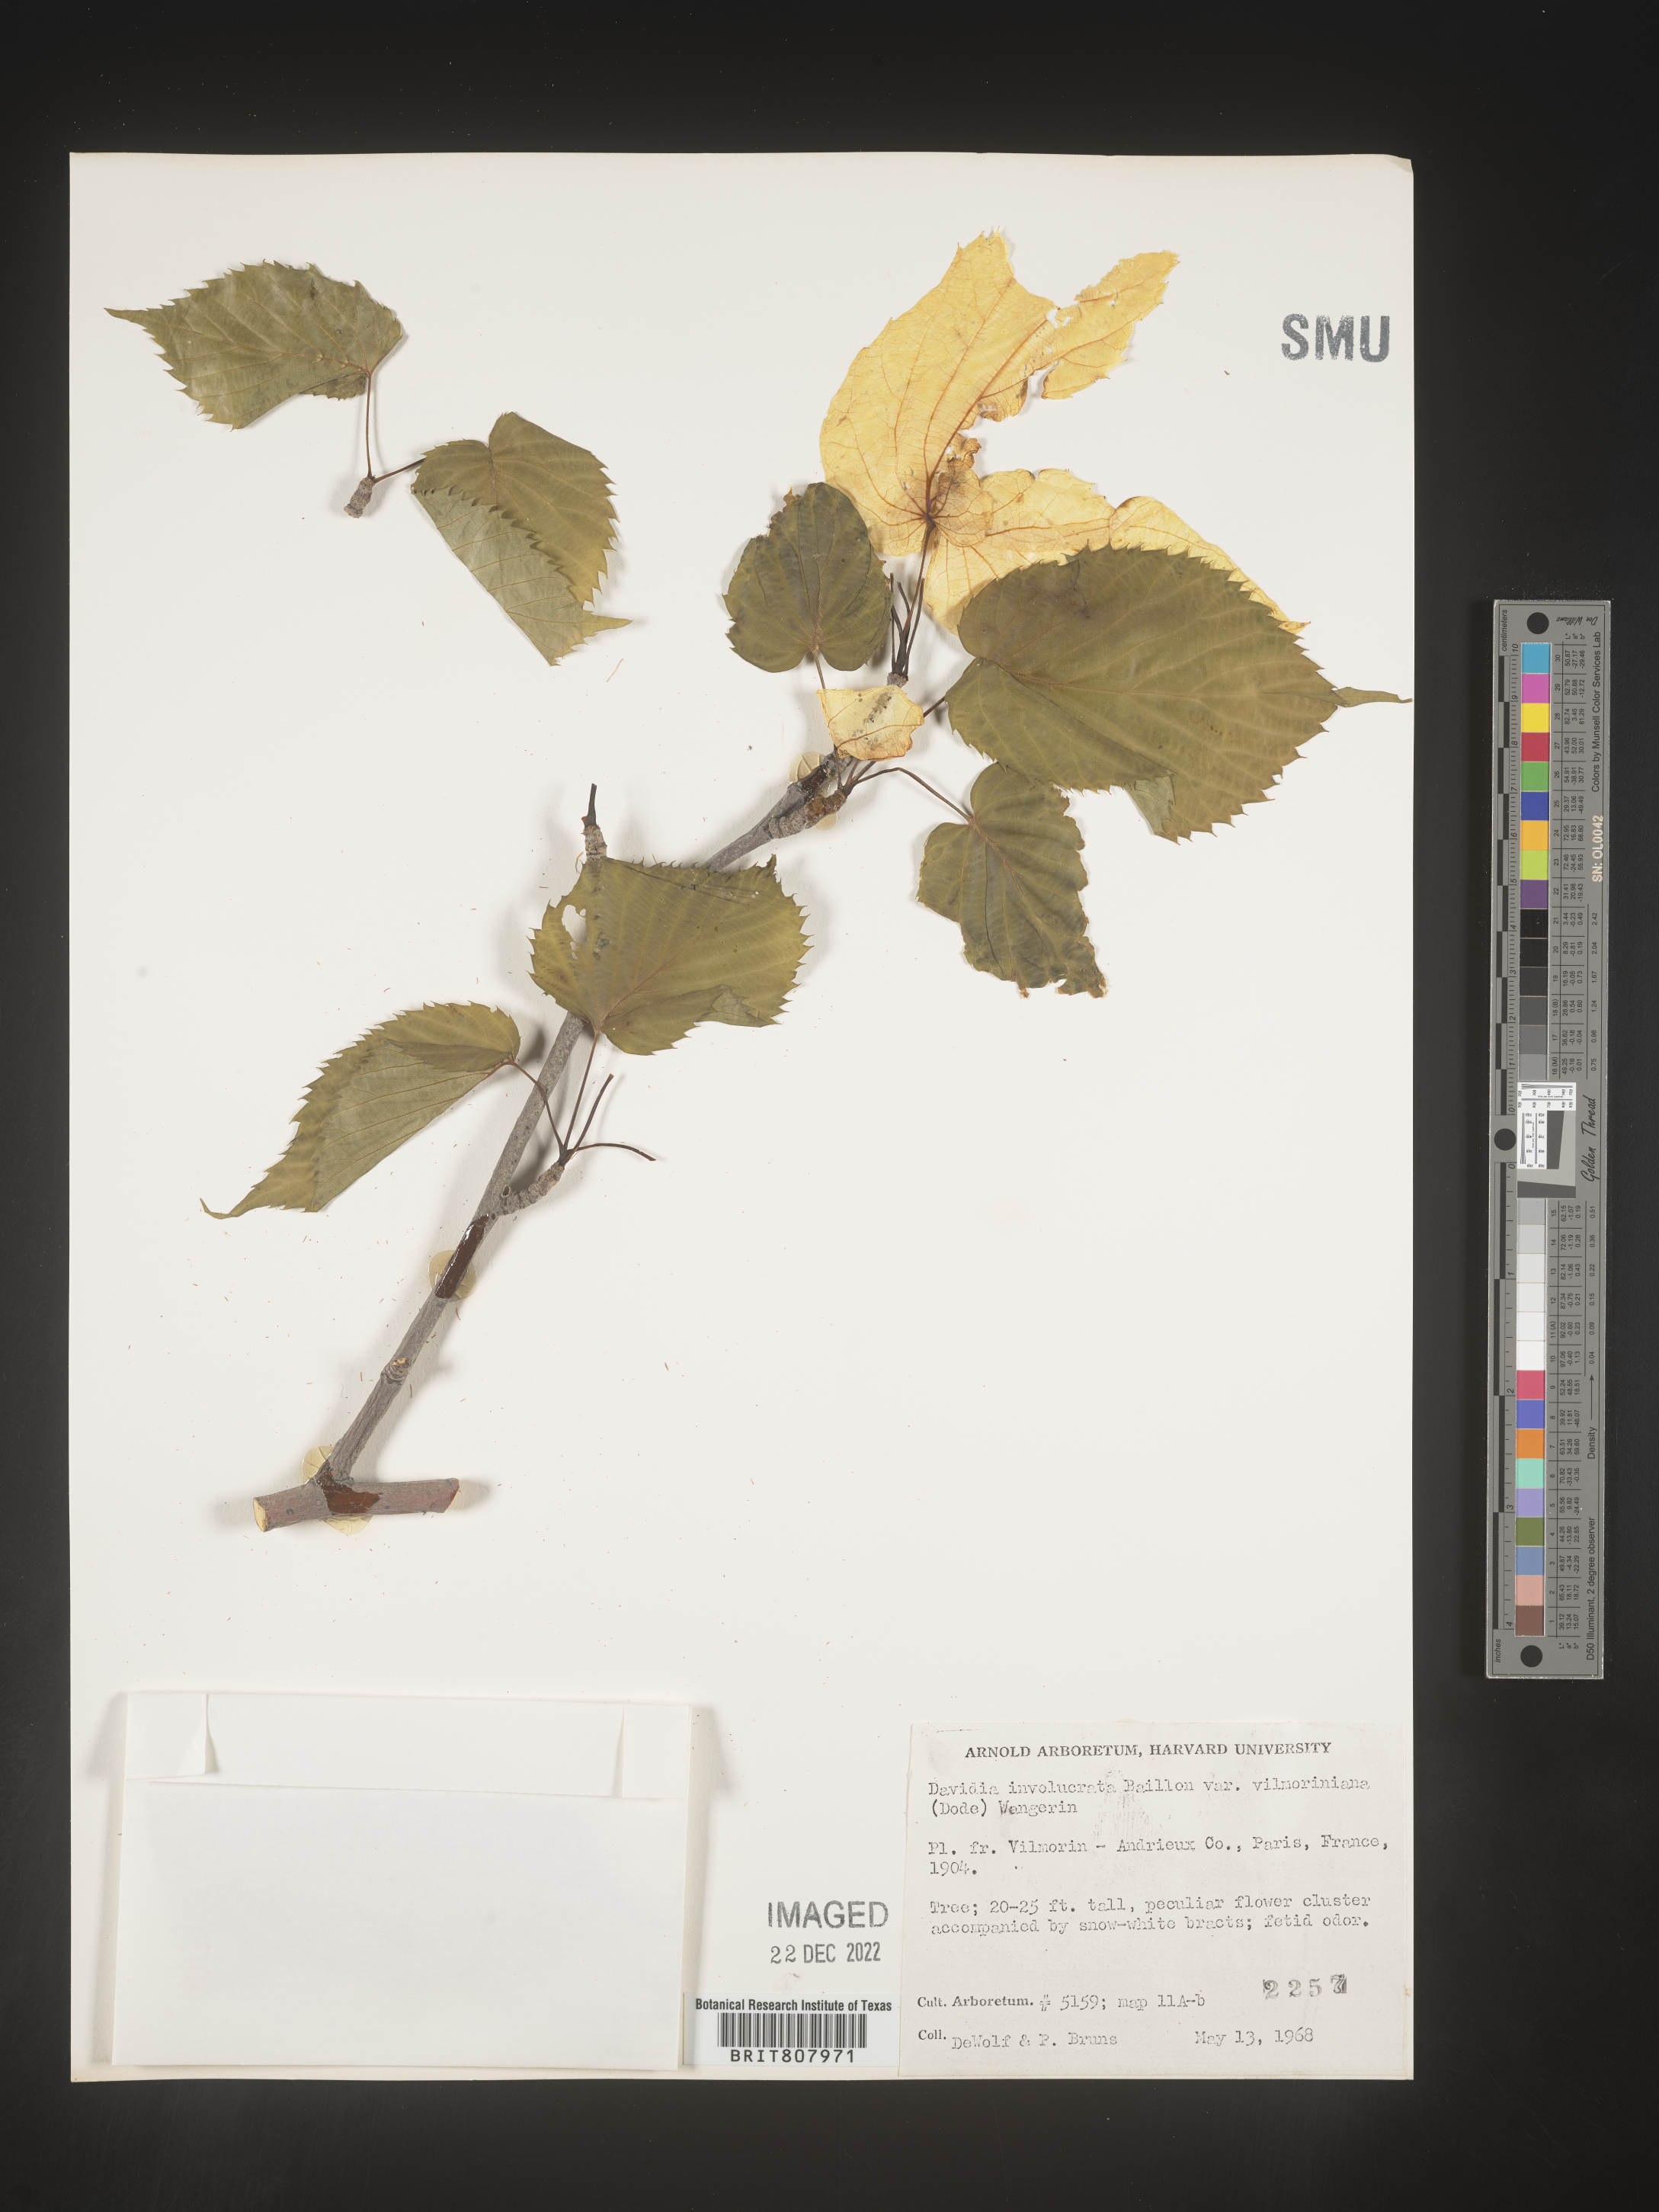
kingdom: Plantae
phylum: Tracheophyta
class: Magnoliopsida
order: Cornales
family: Nyssaceae
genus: Davidia
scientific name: Davidia
